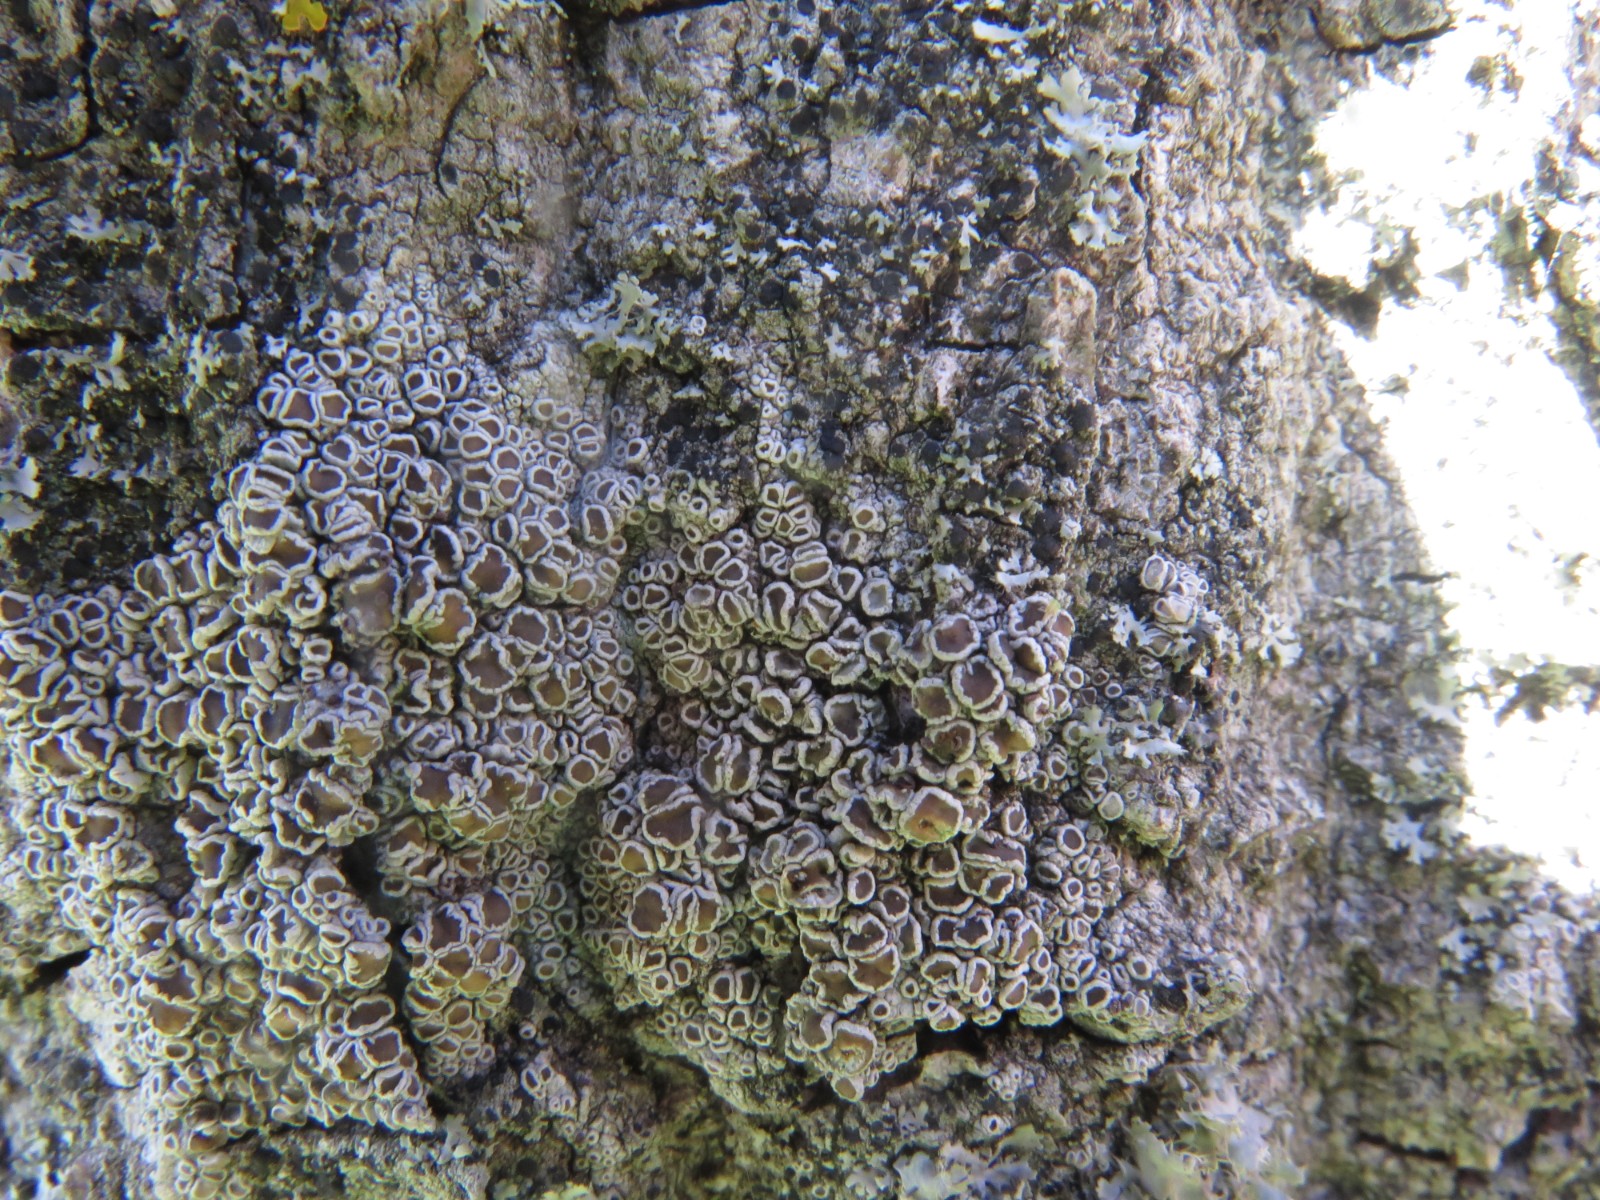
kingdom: Fungi
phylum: Ascomycota
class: Lecanoromycetes
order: Lecanorales
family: Lecanoraceae
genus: Lecanora
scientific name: Lecanora chlarotera
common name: brun kantskivelav
